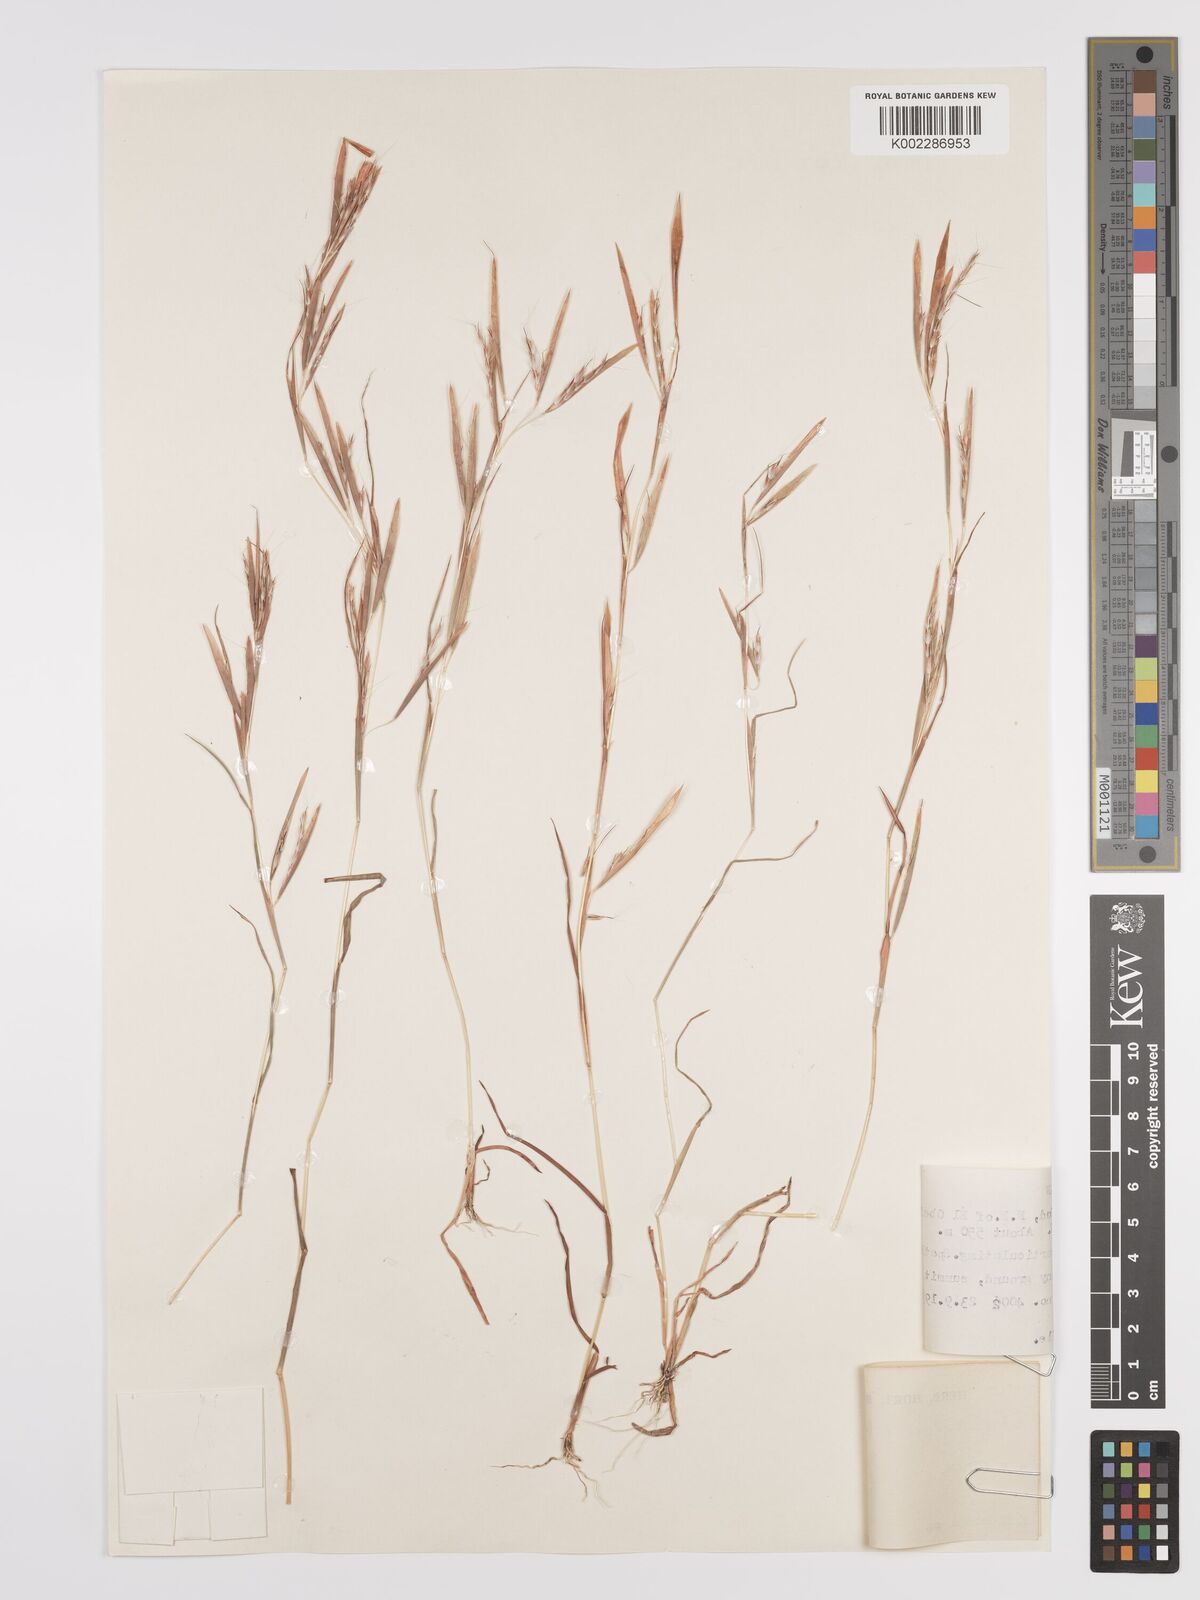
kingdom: Plantae
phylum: Tracheophyta
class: Liliopsida
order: Poales
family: Poaceae
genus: Schizachyrium
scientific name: Schizachyrium exile
